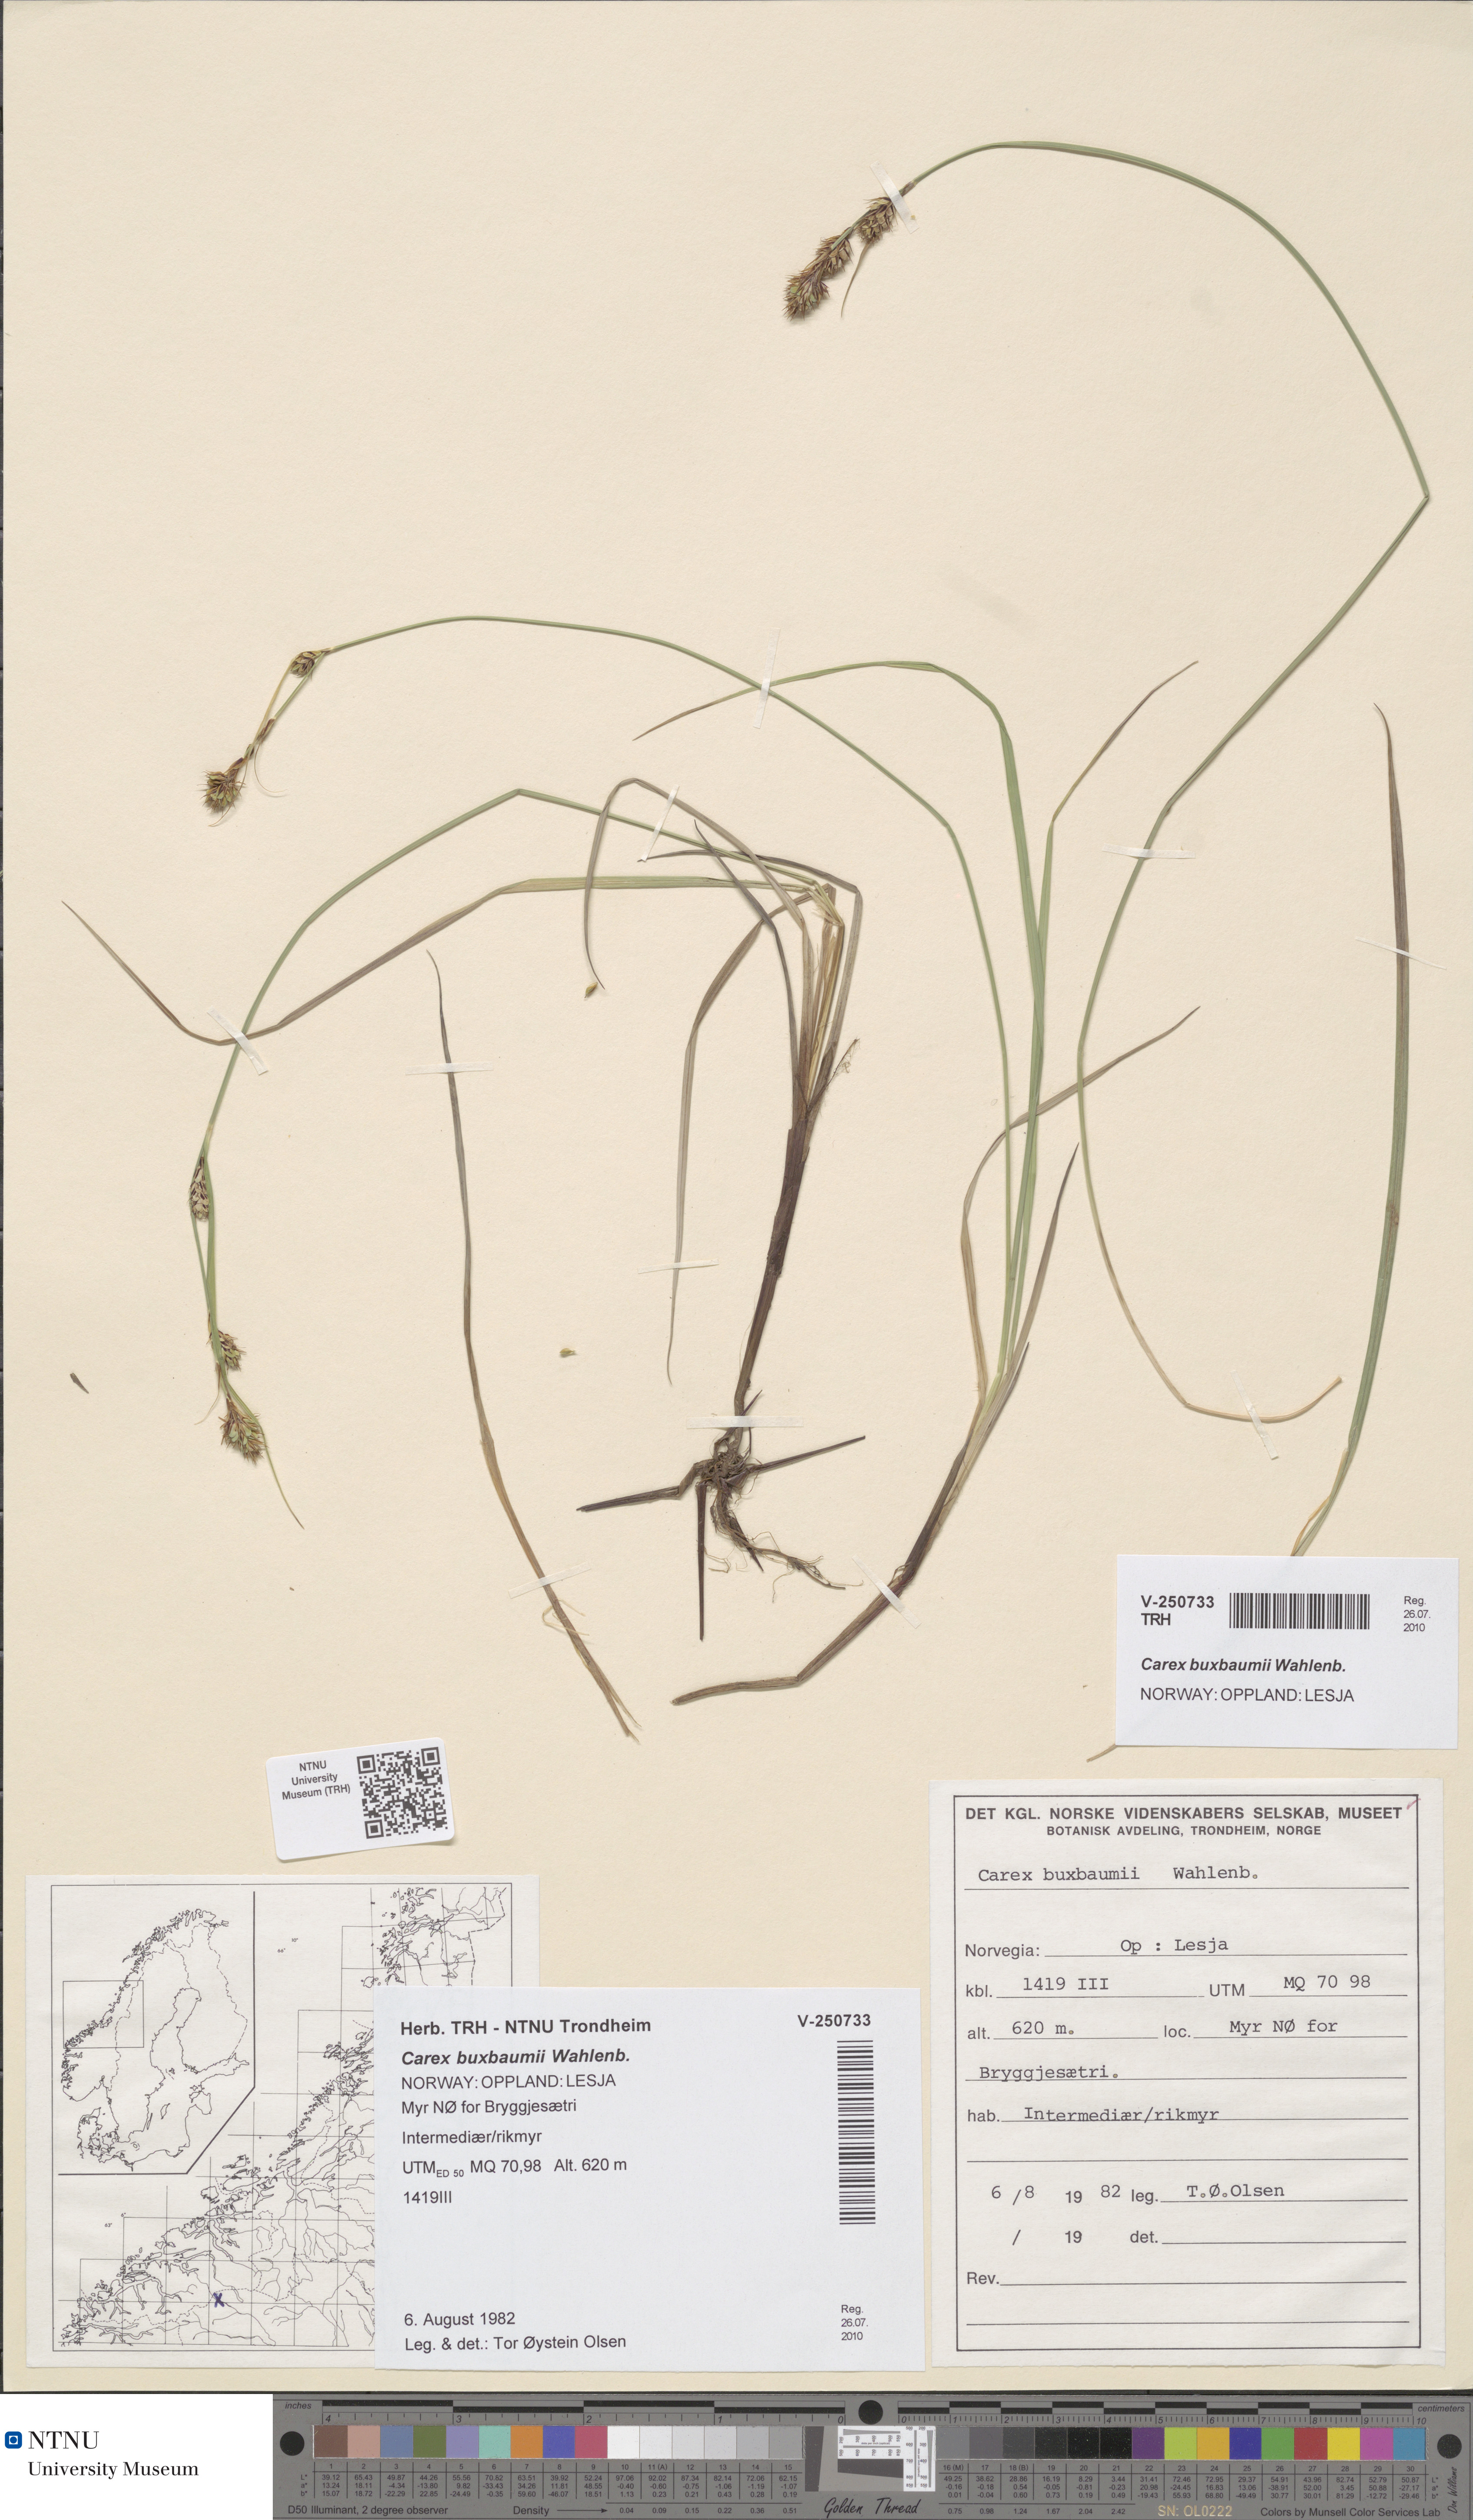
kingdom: Plantae
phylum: Tracheophyta
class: Liliopsida
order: Poales
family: Cyperaceae
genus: Carex
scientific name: Carex buxbaumii
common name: Club sedge
